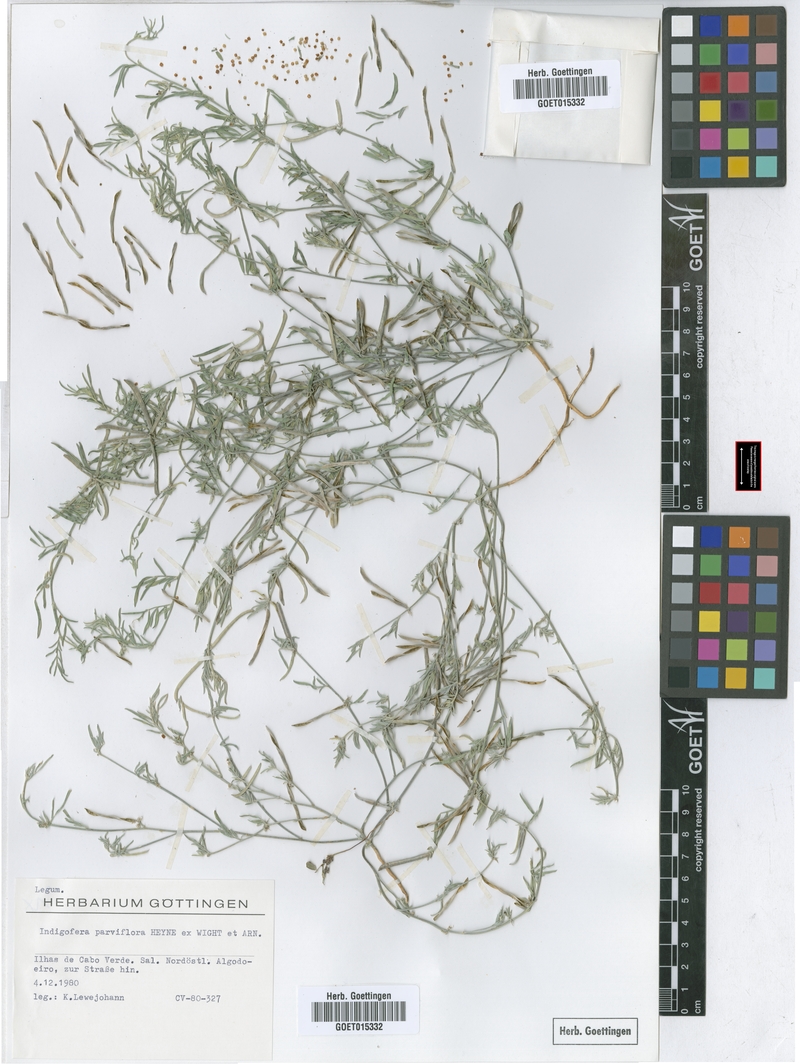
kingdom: Plantae
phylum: Tracheophyta
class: Magnoliopsida
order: Fabales
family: Fabaceae
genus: Indigastrum
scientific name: Indigastrum parviflorum
